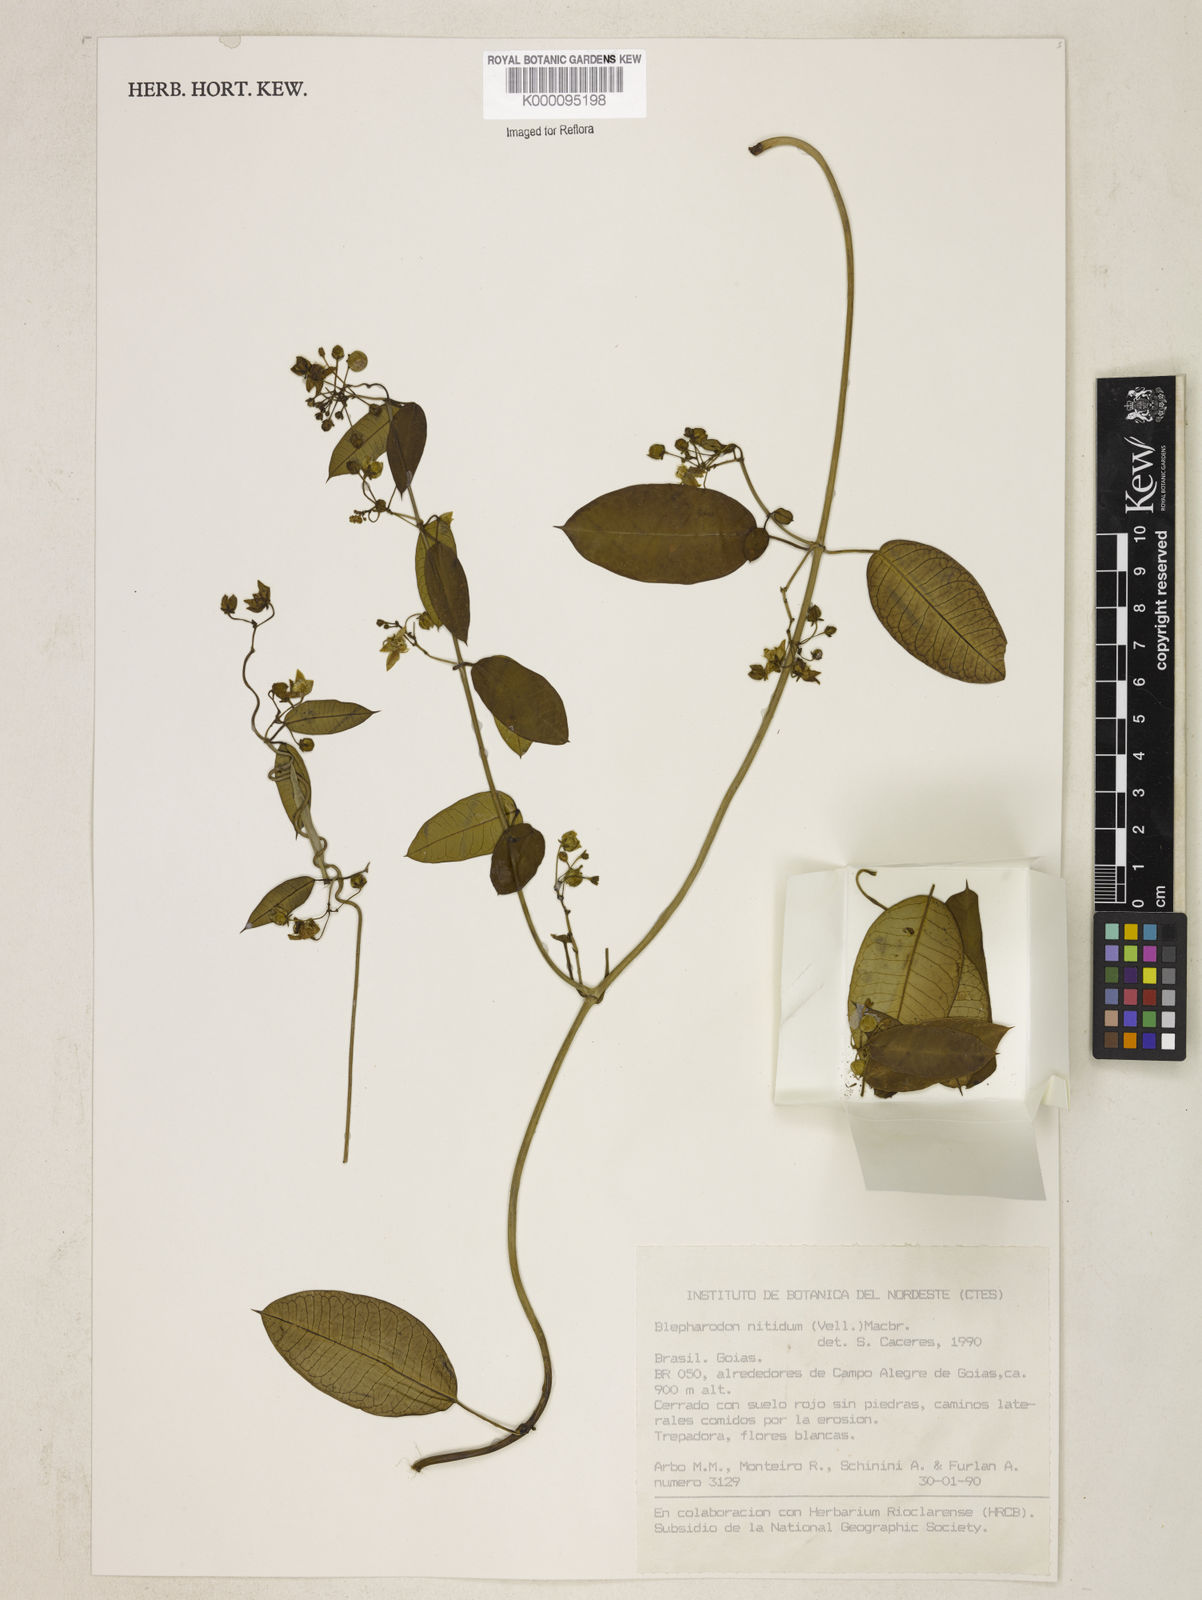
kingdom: Plantae
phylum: Tracheophyta
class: Magnoliopsida
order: Gentianales
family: Apocynaceae
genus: Blepharodon
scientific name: Blepharodon pictum
